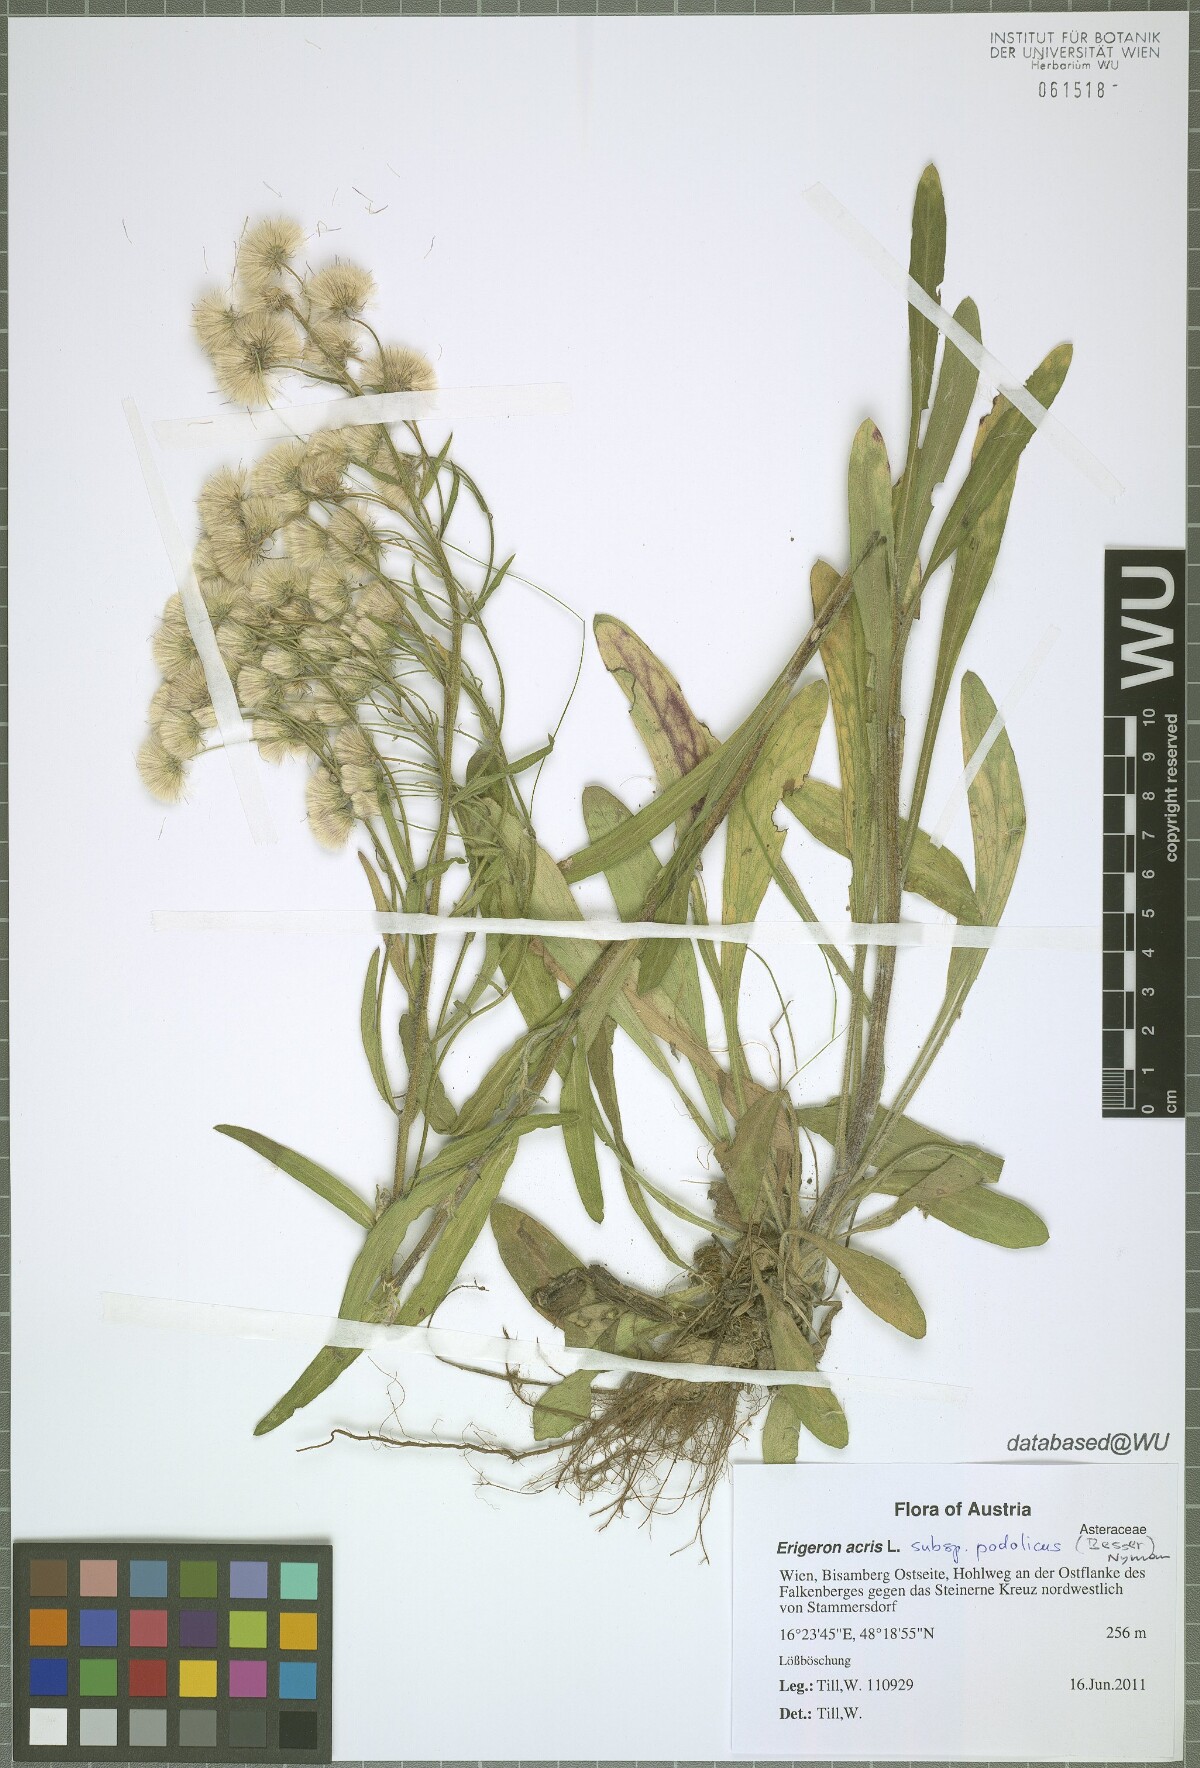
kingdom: Plantae
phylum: Tracheophyta
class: Magnoliopsida
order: Asterales
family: Asteraceae
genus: Erigeron
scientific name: Erigeron podolicus
